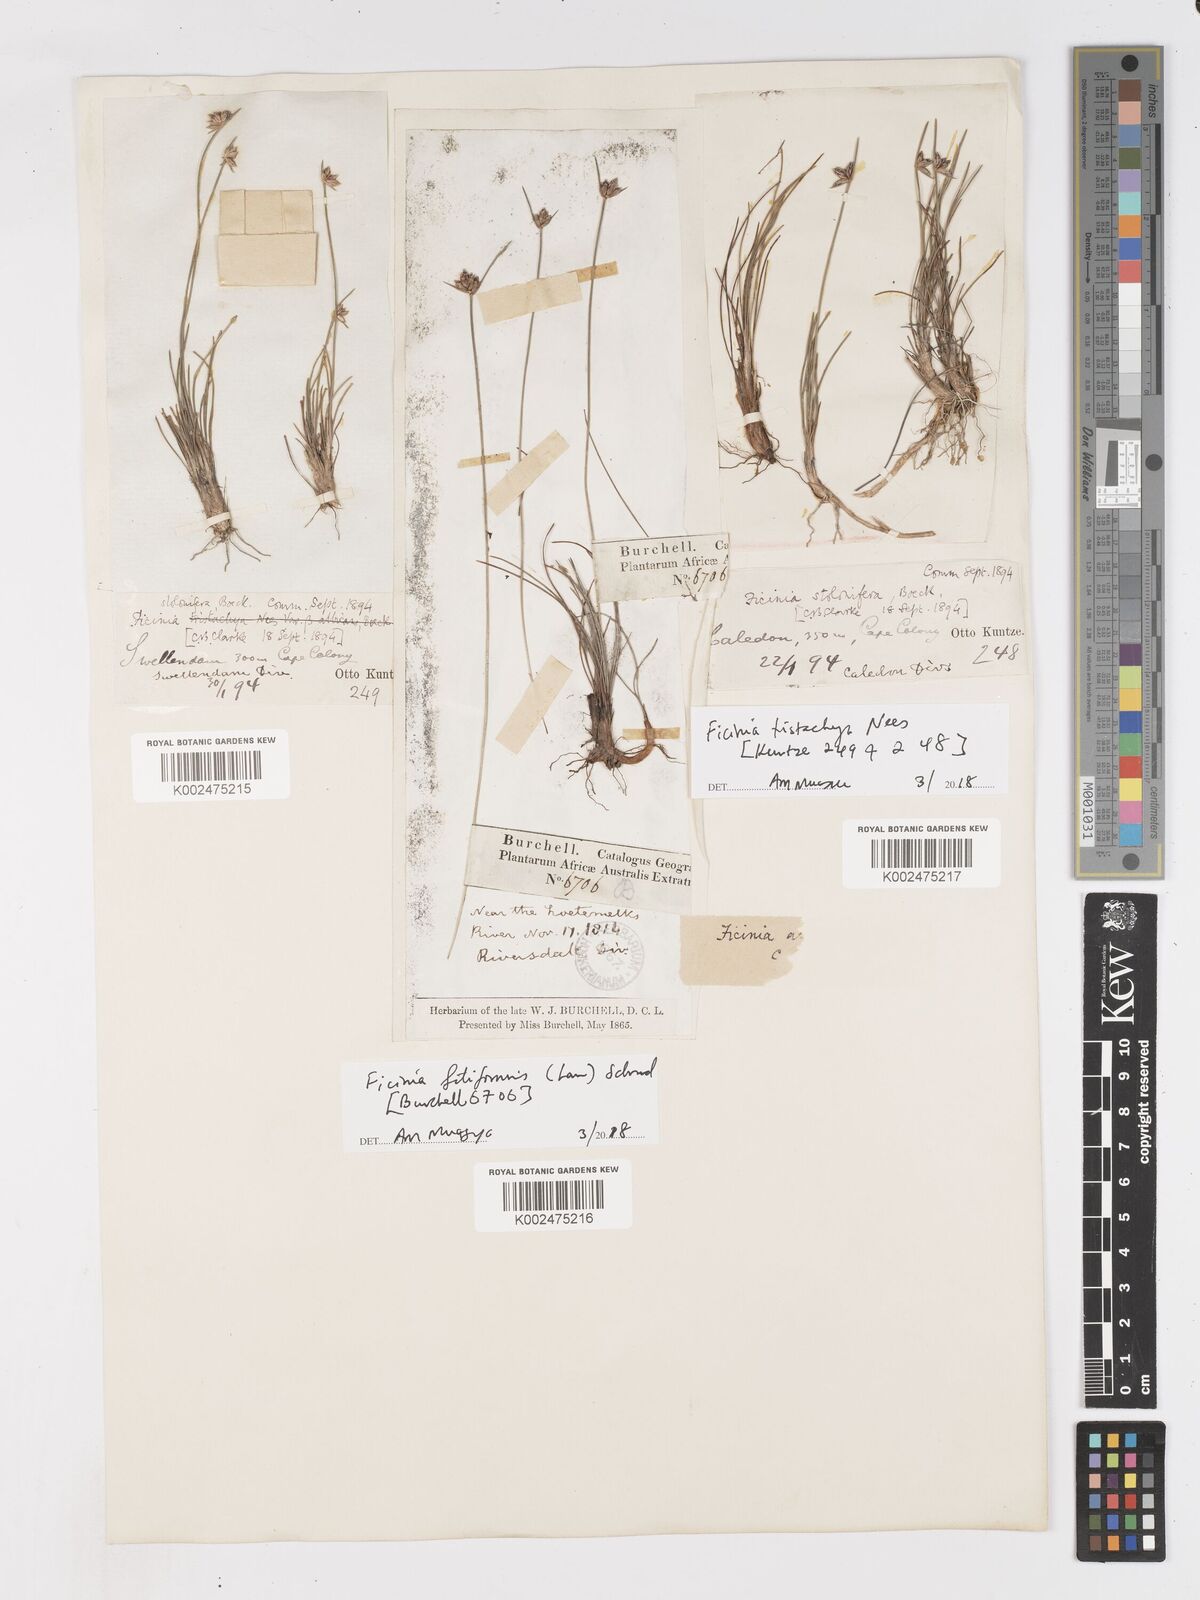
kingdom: Plantae
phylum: Tracheophyta
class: Liliopsida
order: Poales
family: Cyperaceae
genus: Ficinia
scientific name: Ficinia tristachya
